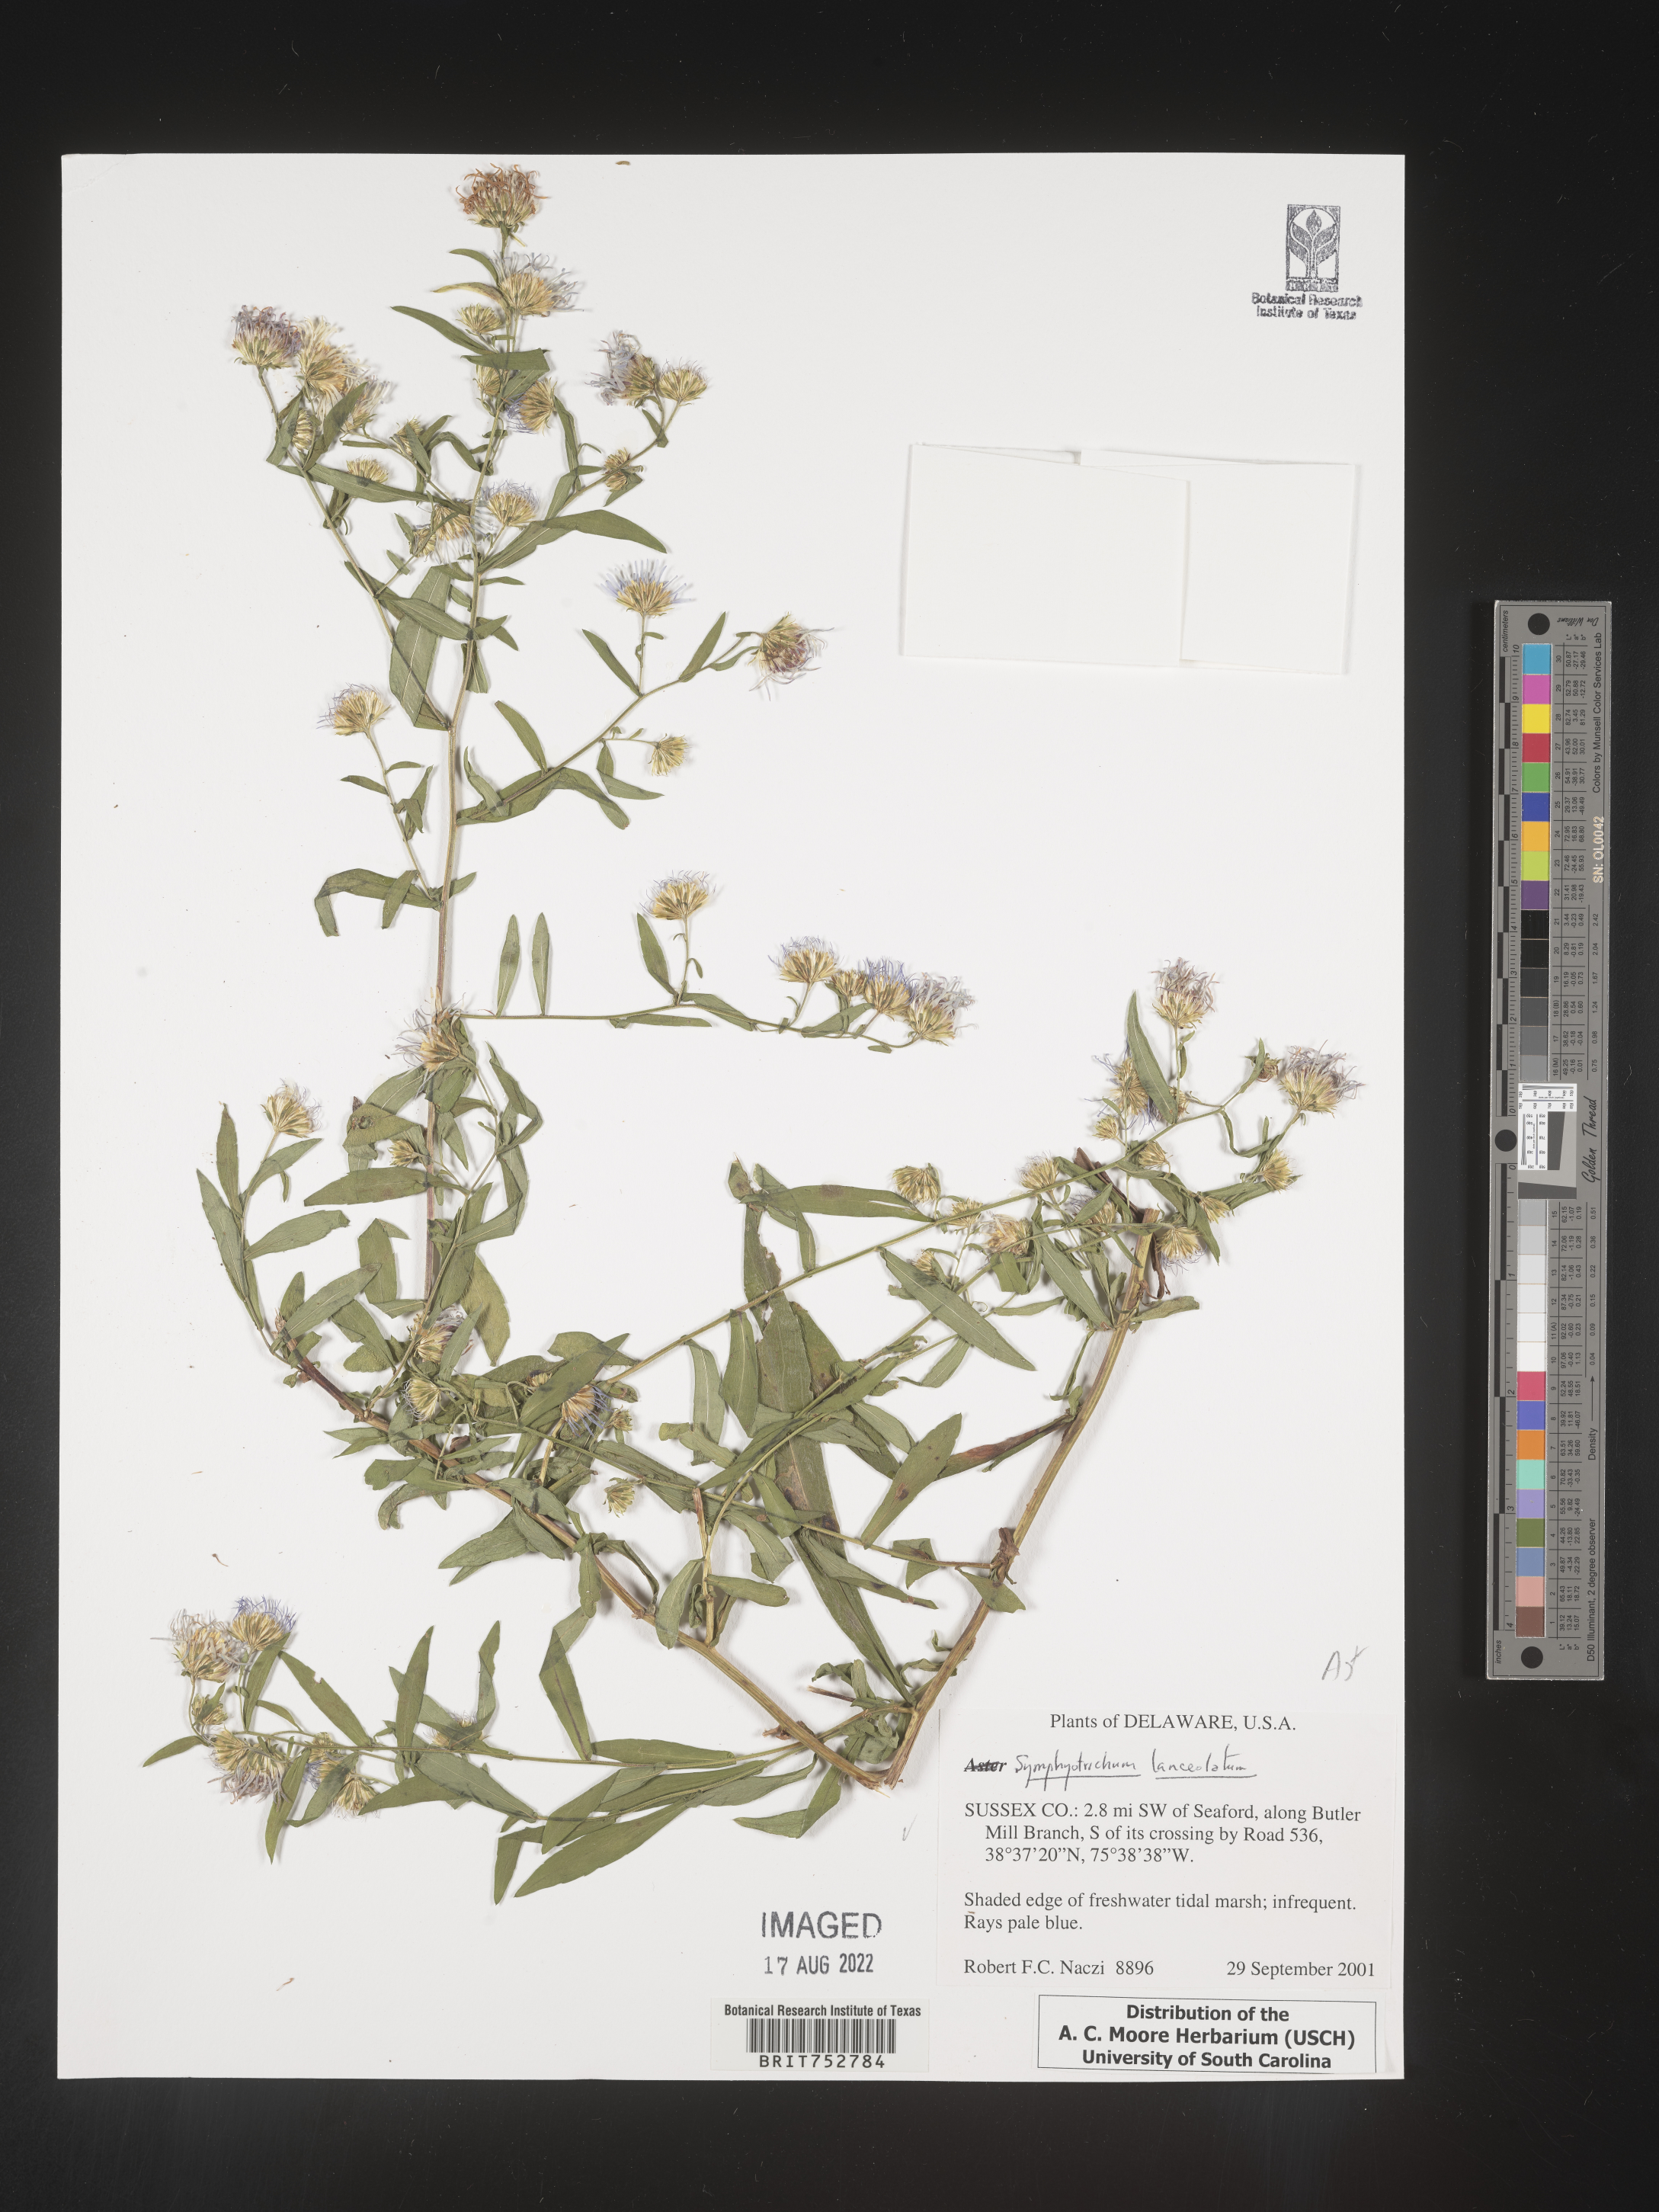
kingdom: Plantae
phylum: Tracheophyta
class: Magnoliopsida
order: Asterales
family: Asteraceae
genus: Symphyotrichum
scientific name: Symphyotrichum lanceolatum
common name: Panicled aster
